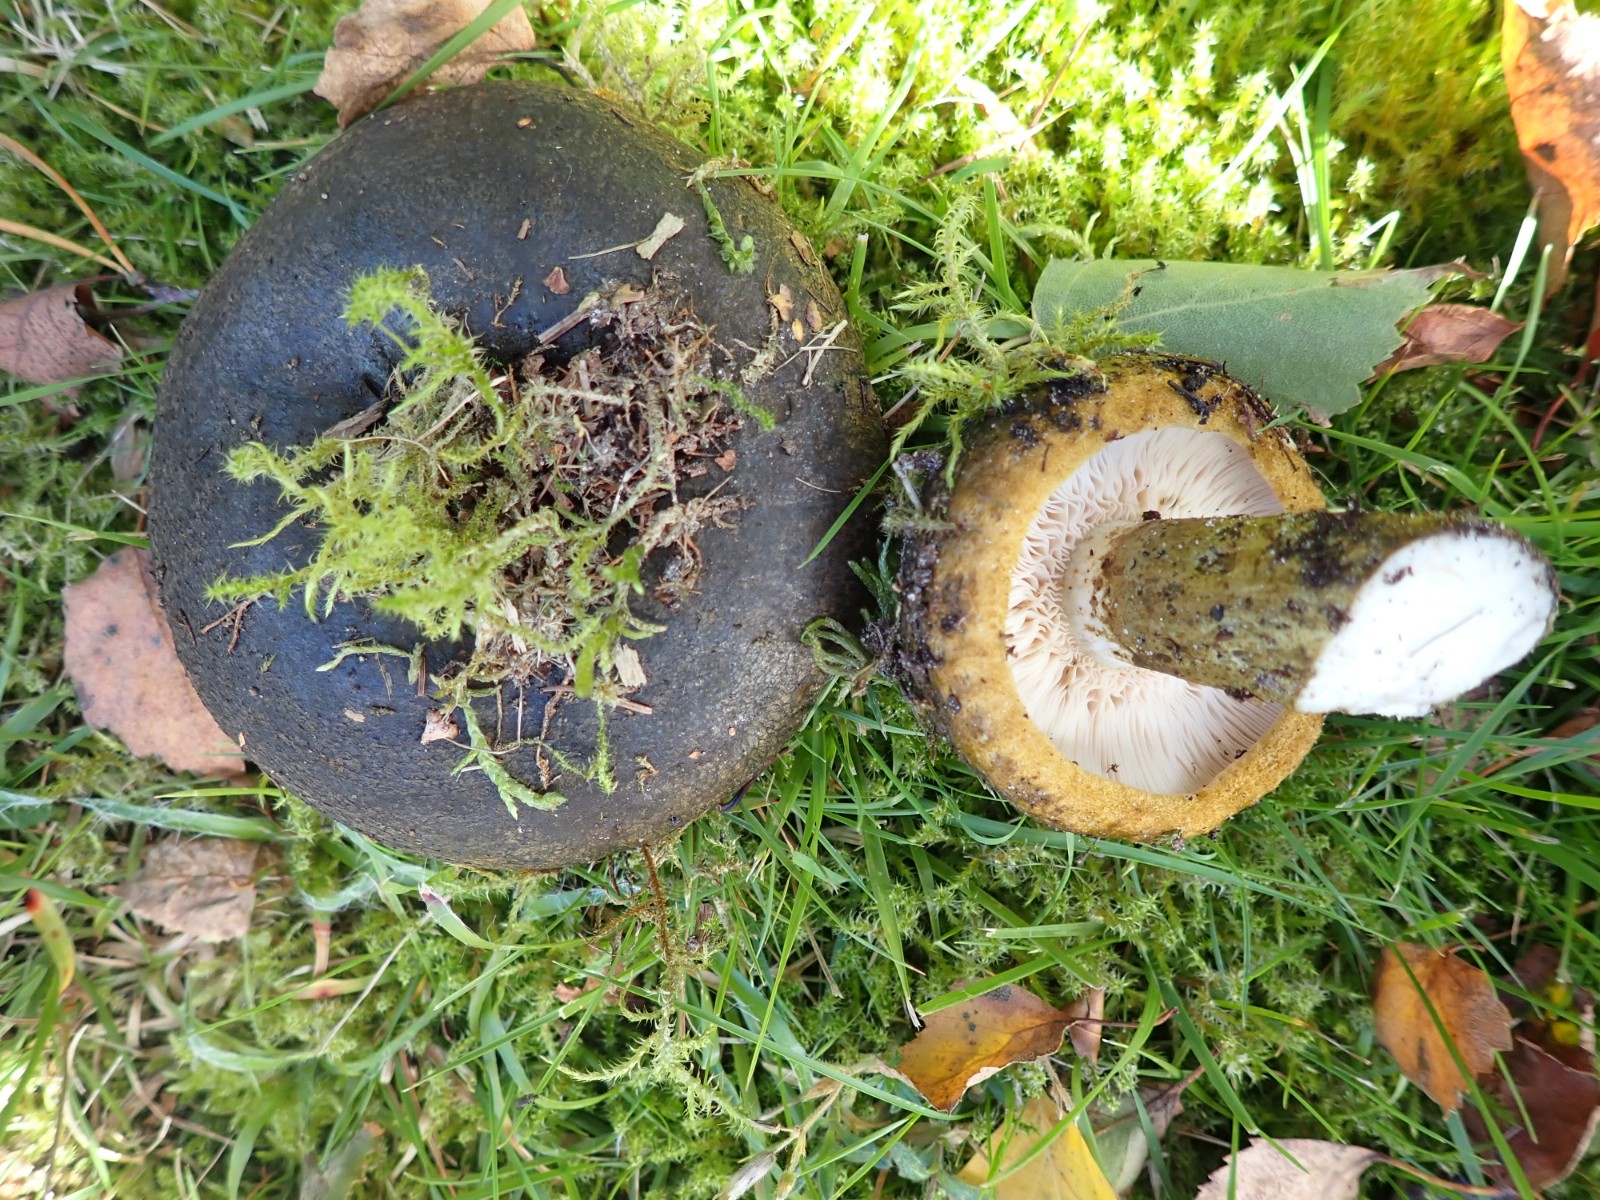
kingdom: Fungi
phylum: Basidiomycota
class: Agaricomycetes
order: Russulales
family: Russulaceae
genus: Lactarius
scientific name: Lactarius necator
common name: manddraber-mælkehat
